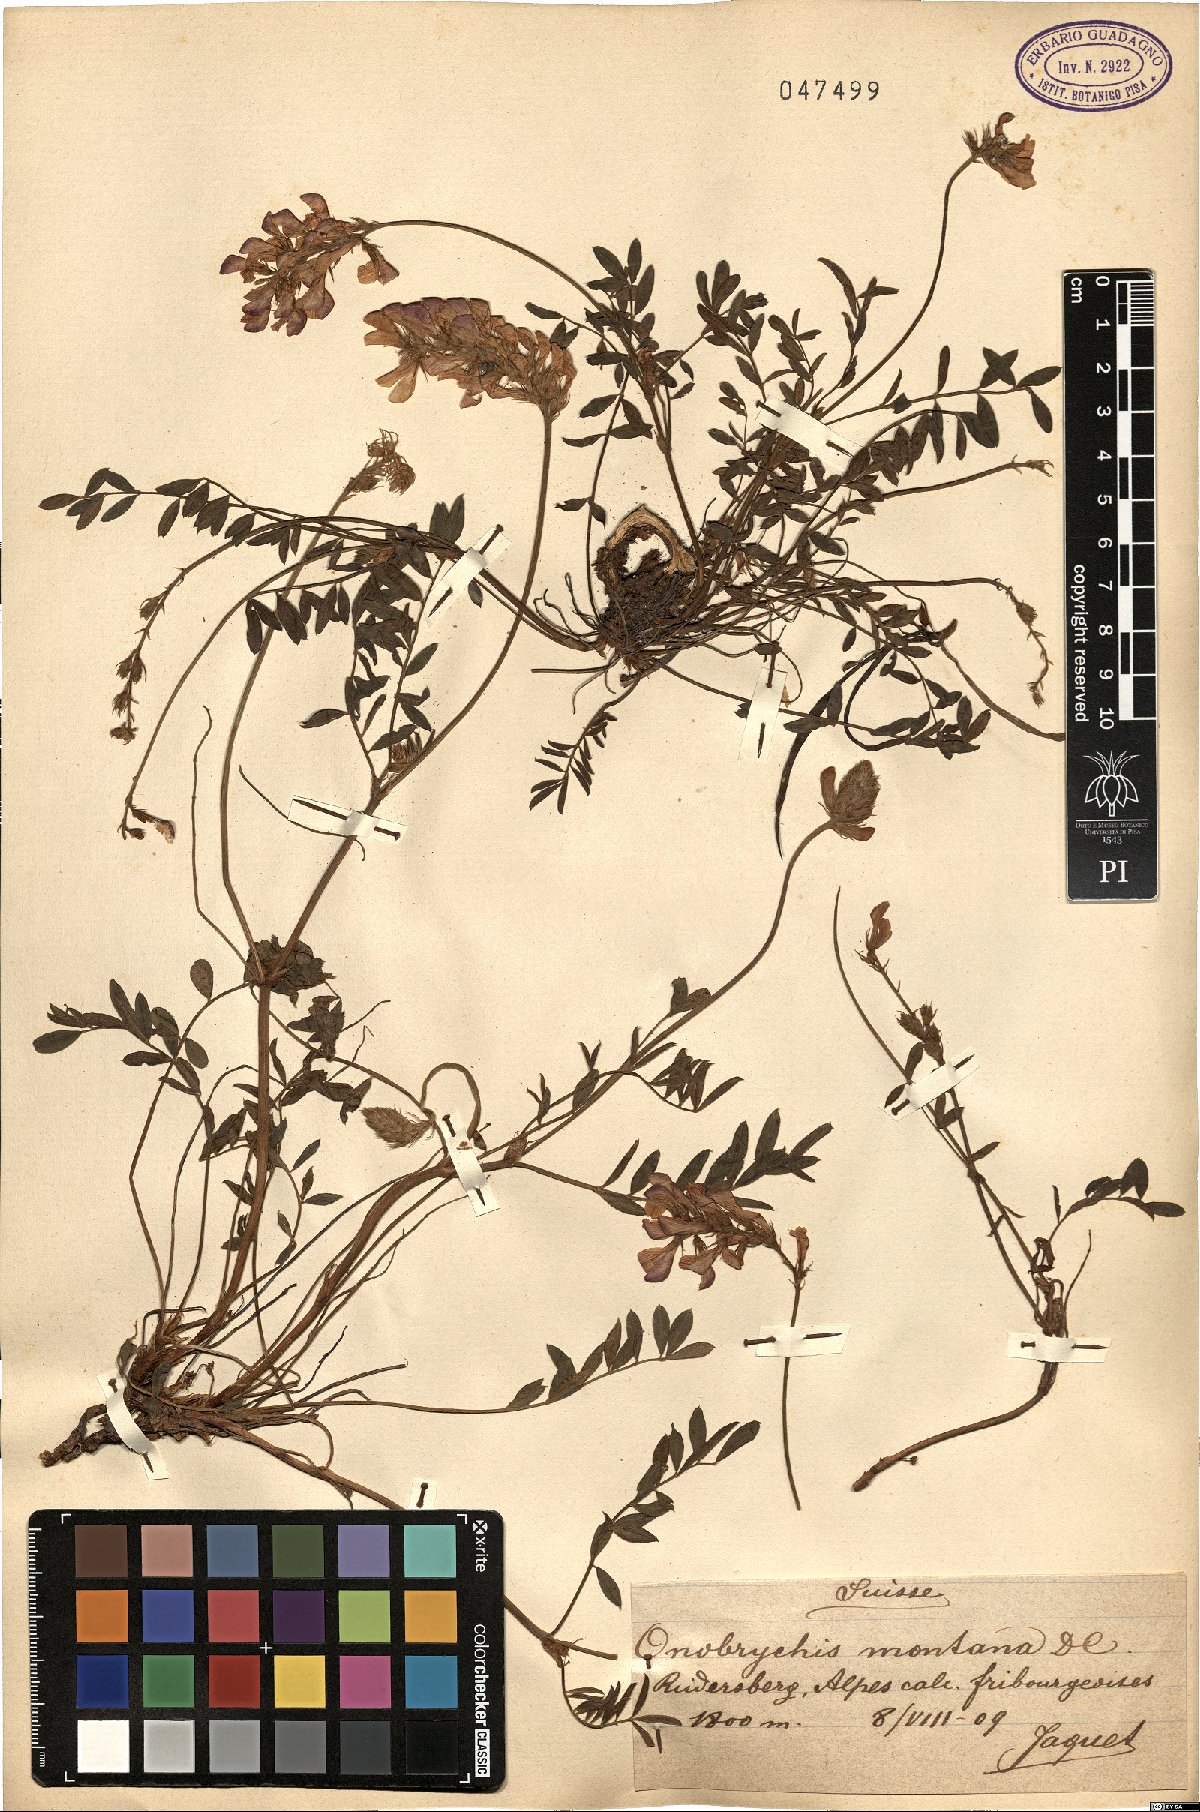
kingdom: Plantae
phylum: Tracheophyta
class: Magnoliopsida
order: Fabales
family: Fabaceae
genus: Onobrychis
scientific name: Onobrychis montana
